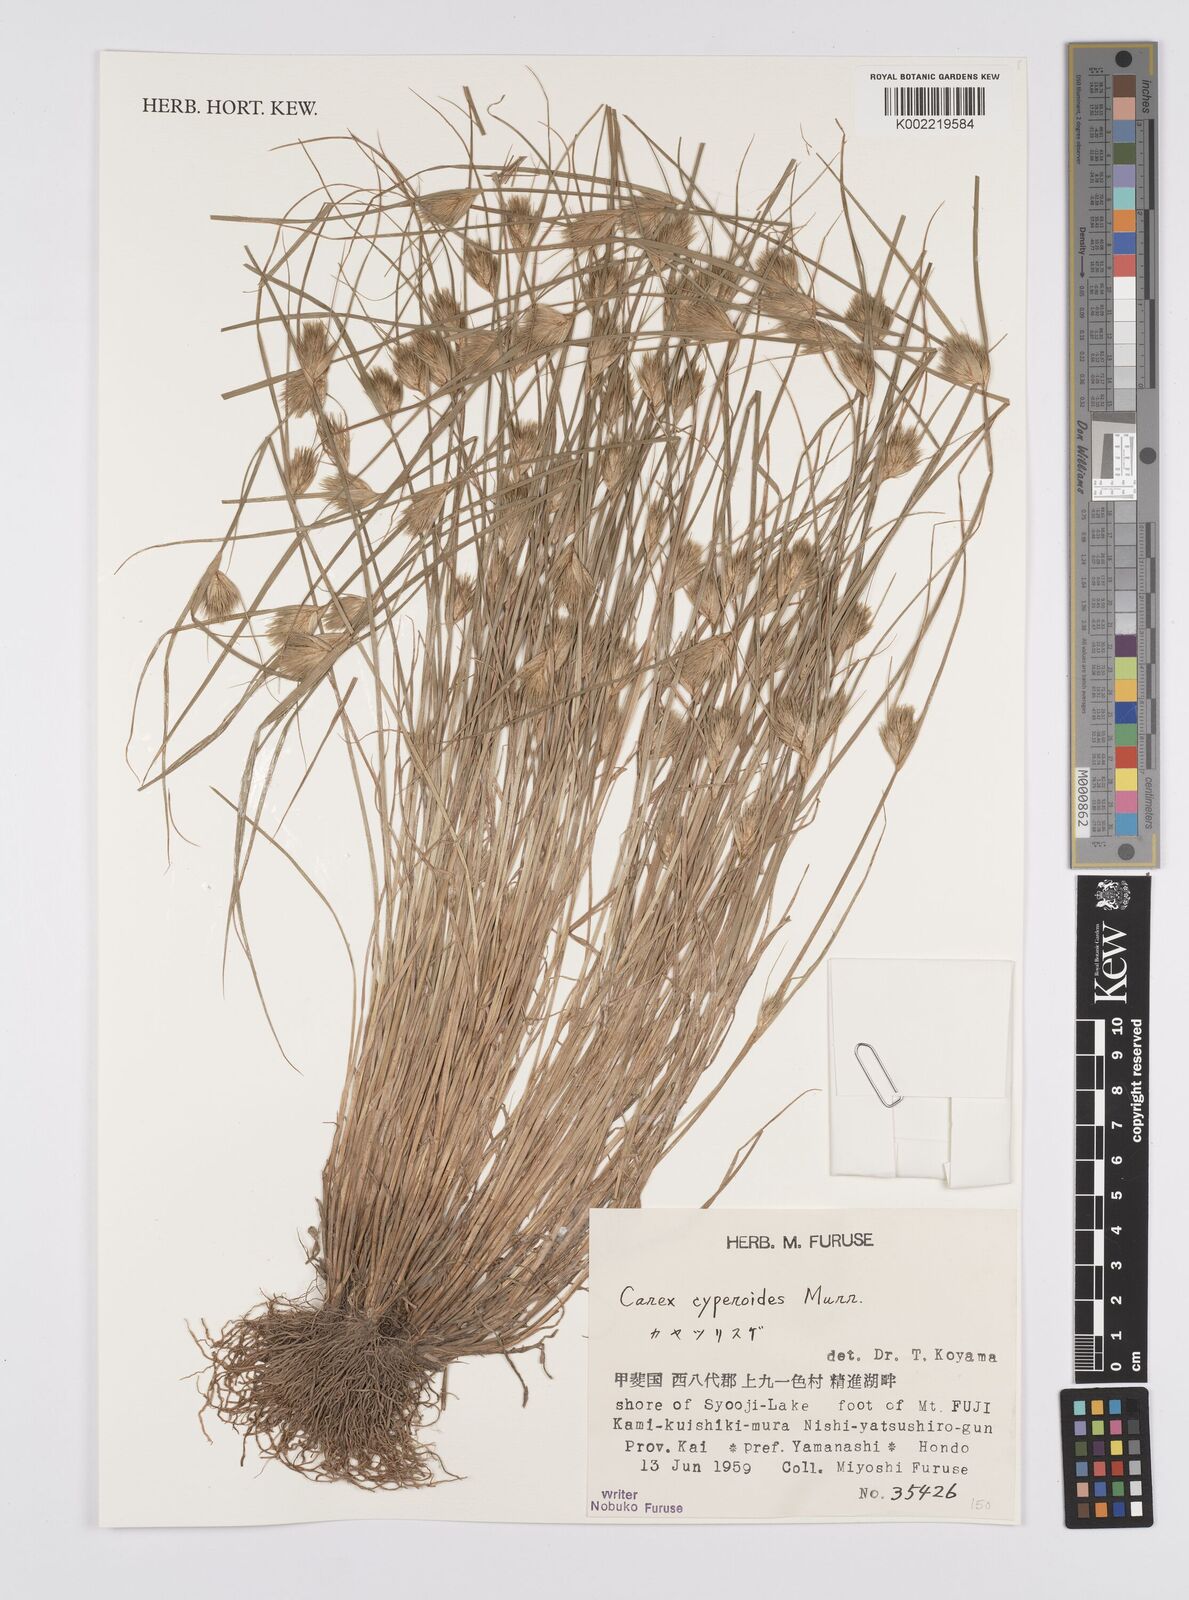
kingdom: Plantae
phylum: Tracheophyta
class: Liliopsida
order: Poales
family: Cyperaceae
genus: Carex
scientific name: Carex bohemica
